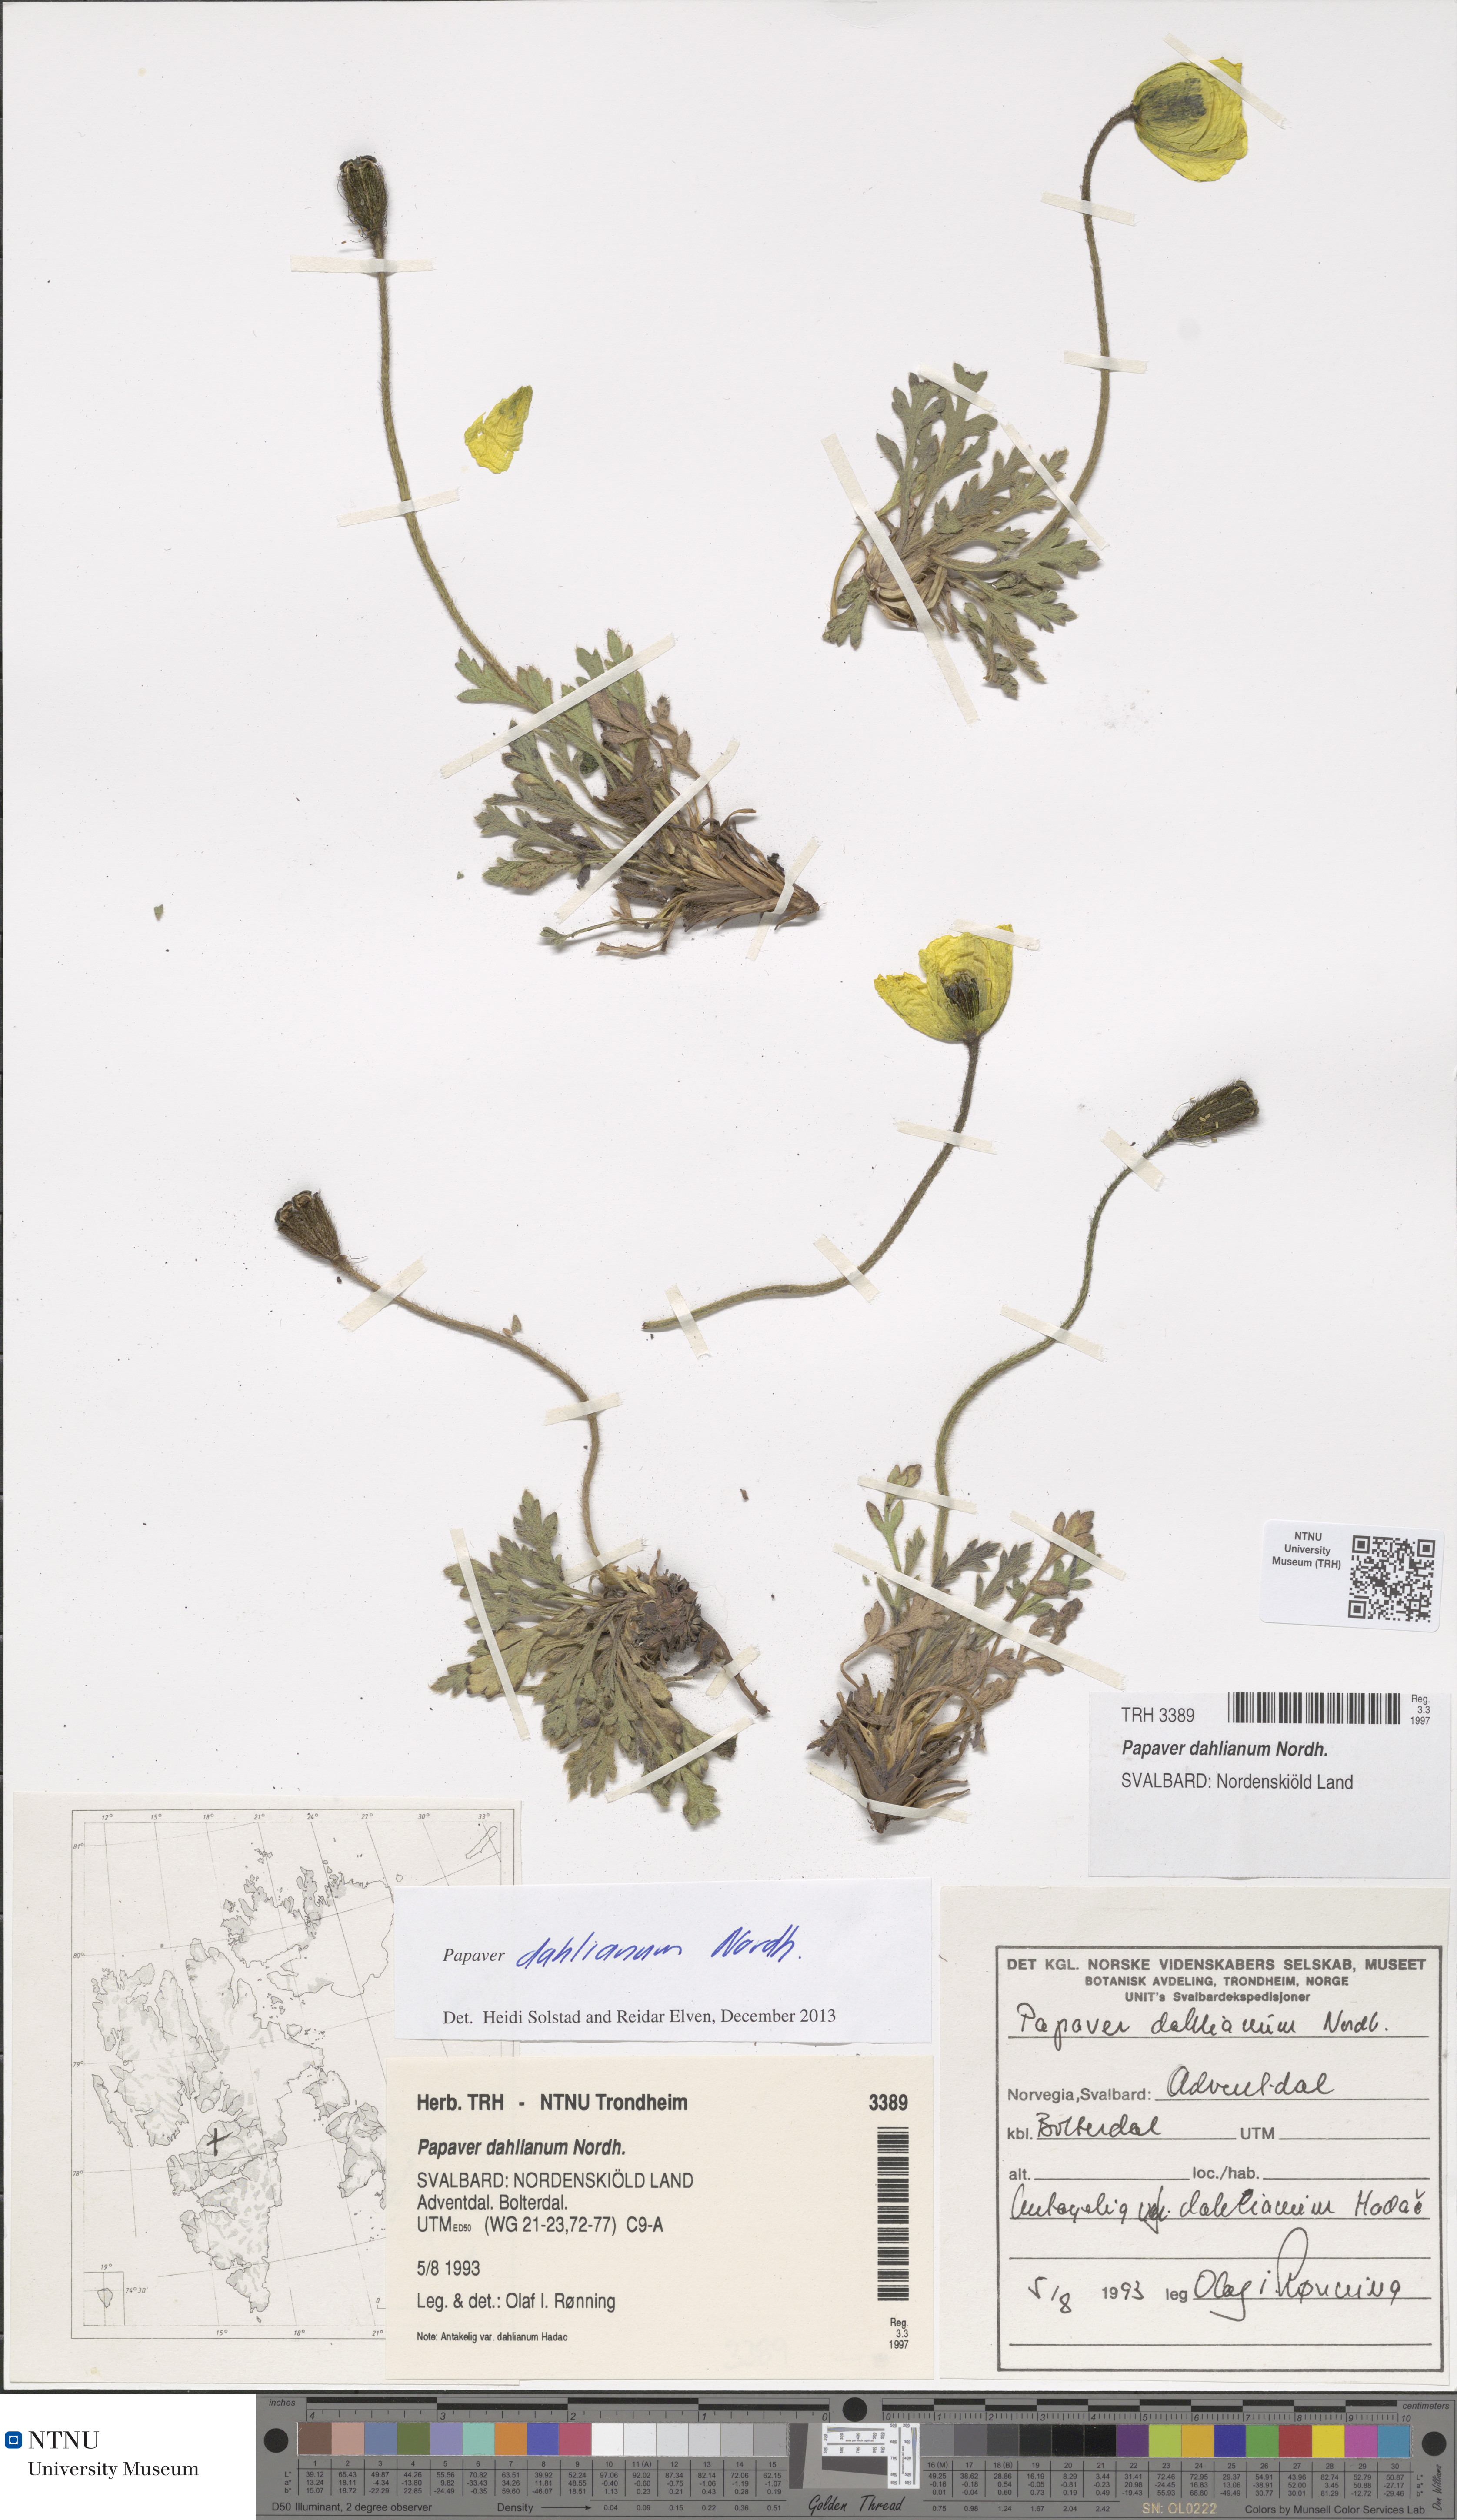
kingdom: Plantae
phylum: Tracheophyta
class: Magnoliopsida
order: Ranunculales
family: Papaveraceae
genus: Papaver
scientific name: Papaver radicatum
